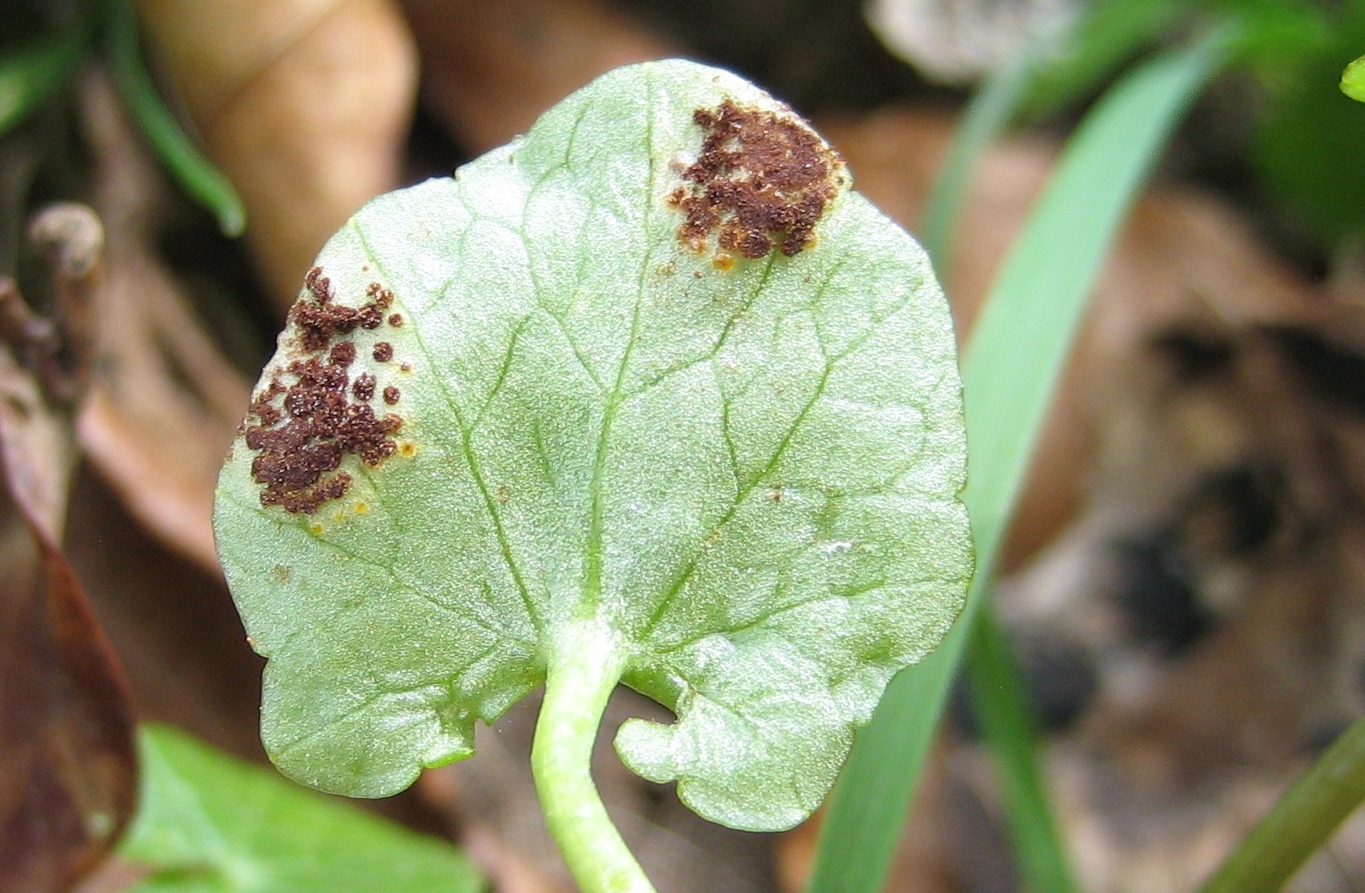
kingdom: Fungi
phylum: Basidiomycota
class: Pucciniomycetes
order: Pucciniales
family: Pucciniaceae
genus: Uromyces
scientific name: Uromyces ficariae
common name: vorterod-encellerust
